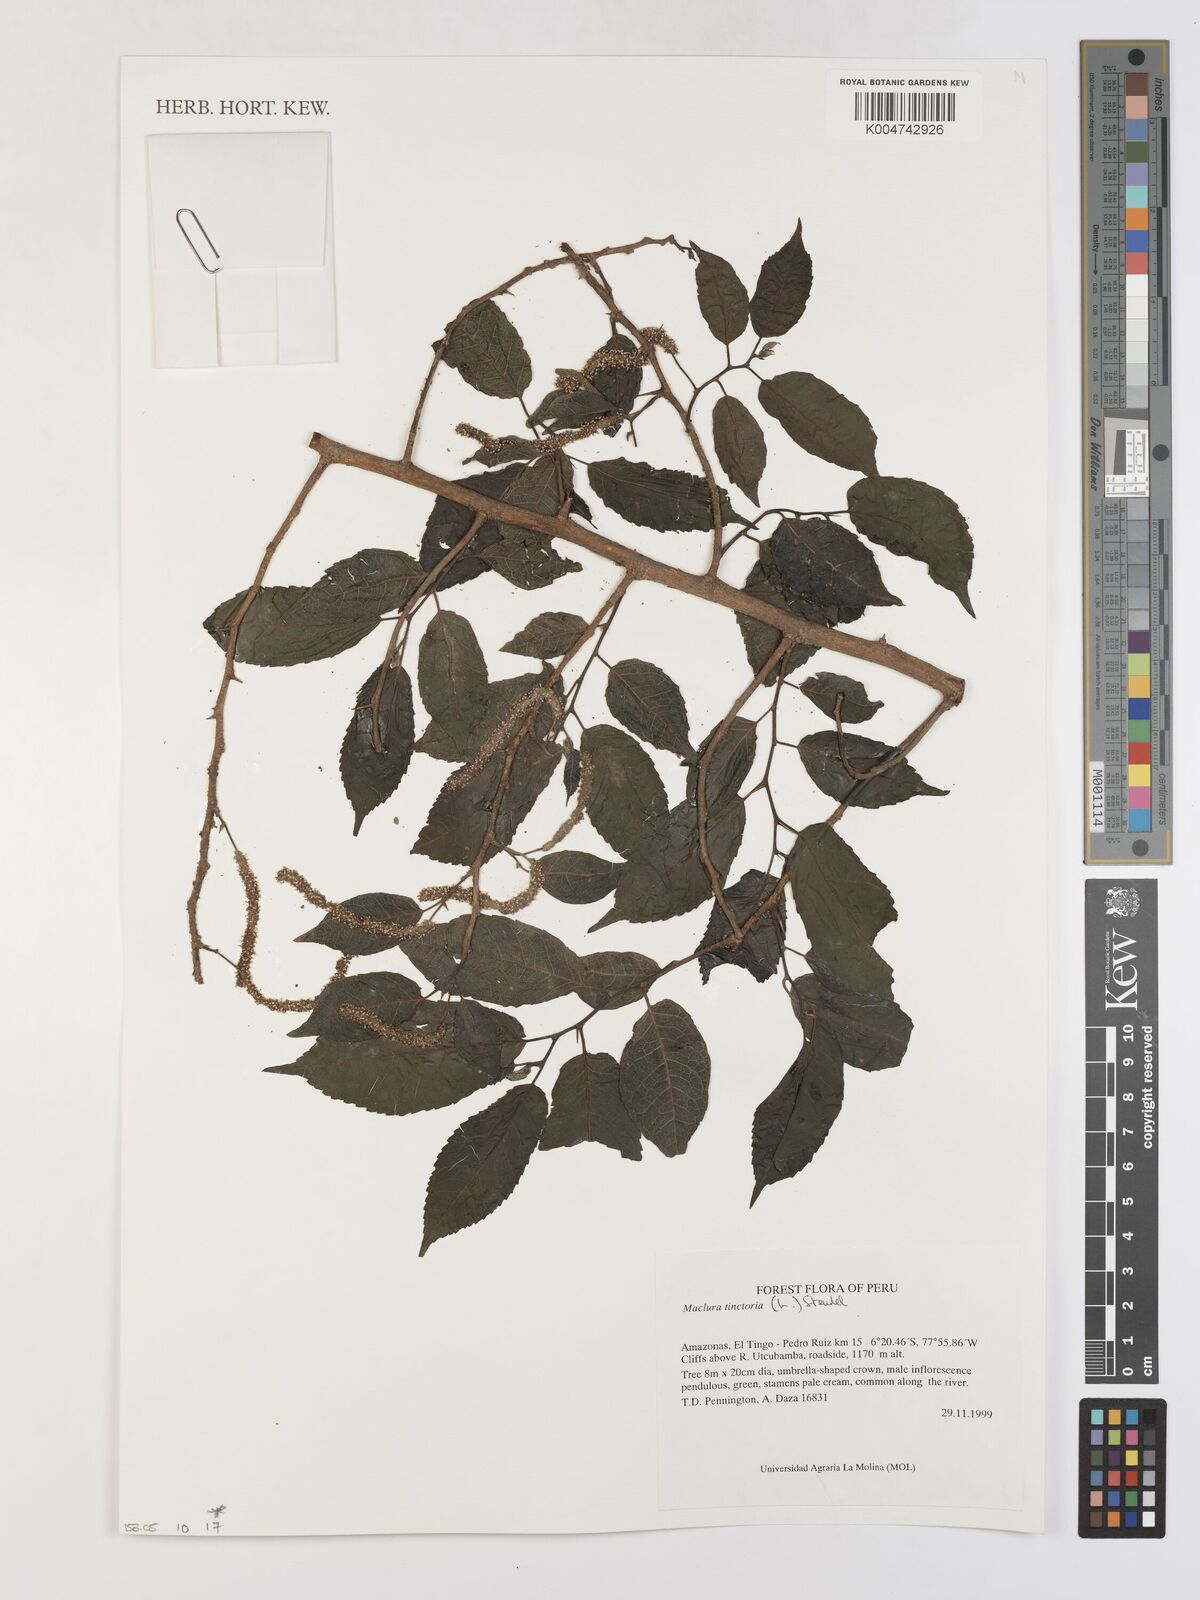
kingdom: Plantae
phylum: Tracheophyta
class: Magnoliopsida
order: Rosales
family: Moraceae
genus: Maclura
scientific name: Maclura tinctoria
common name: Old fustic
